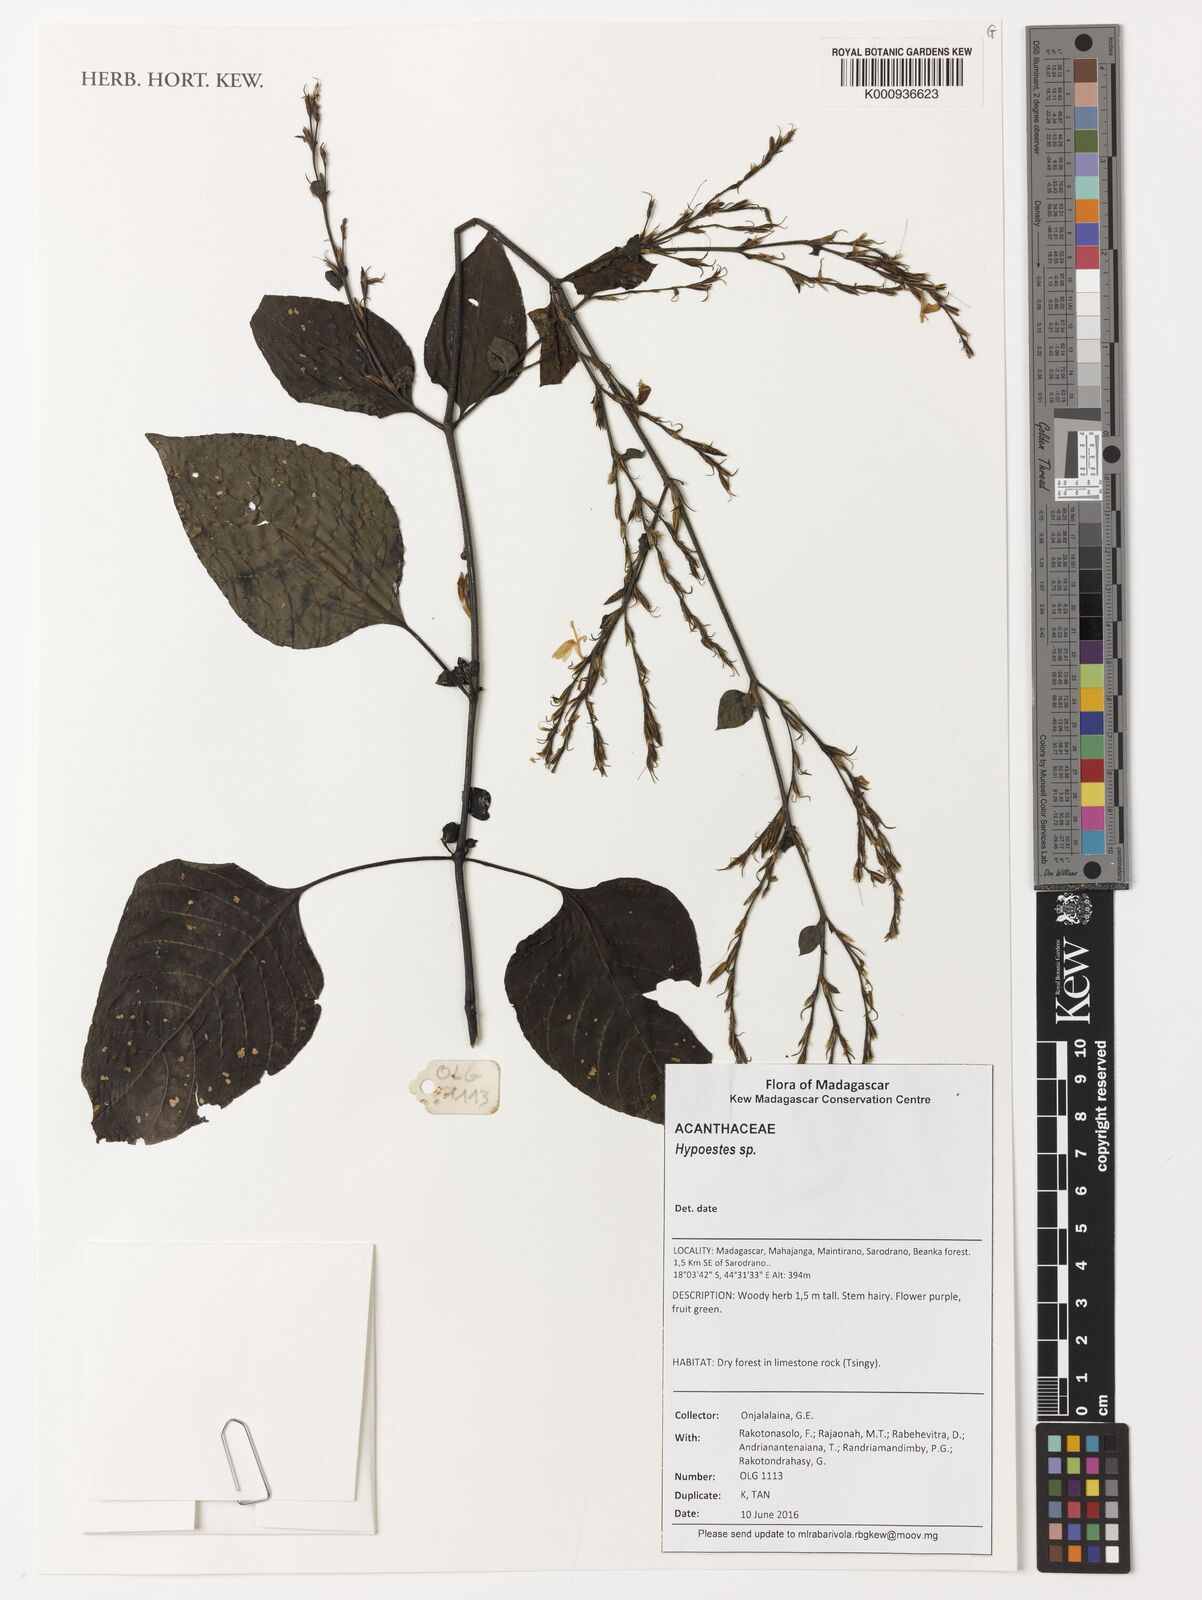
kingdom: Plantae
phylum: Tracheophyta
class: Magnoliopsida
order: Lamiales
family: Acanthaceae
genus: Hypoestes
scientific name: Hypoestes
